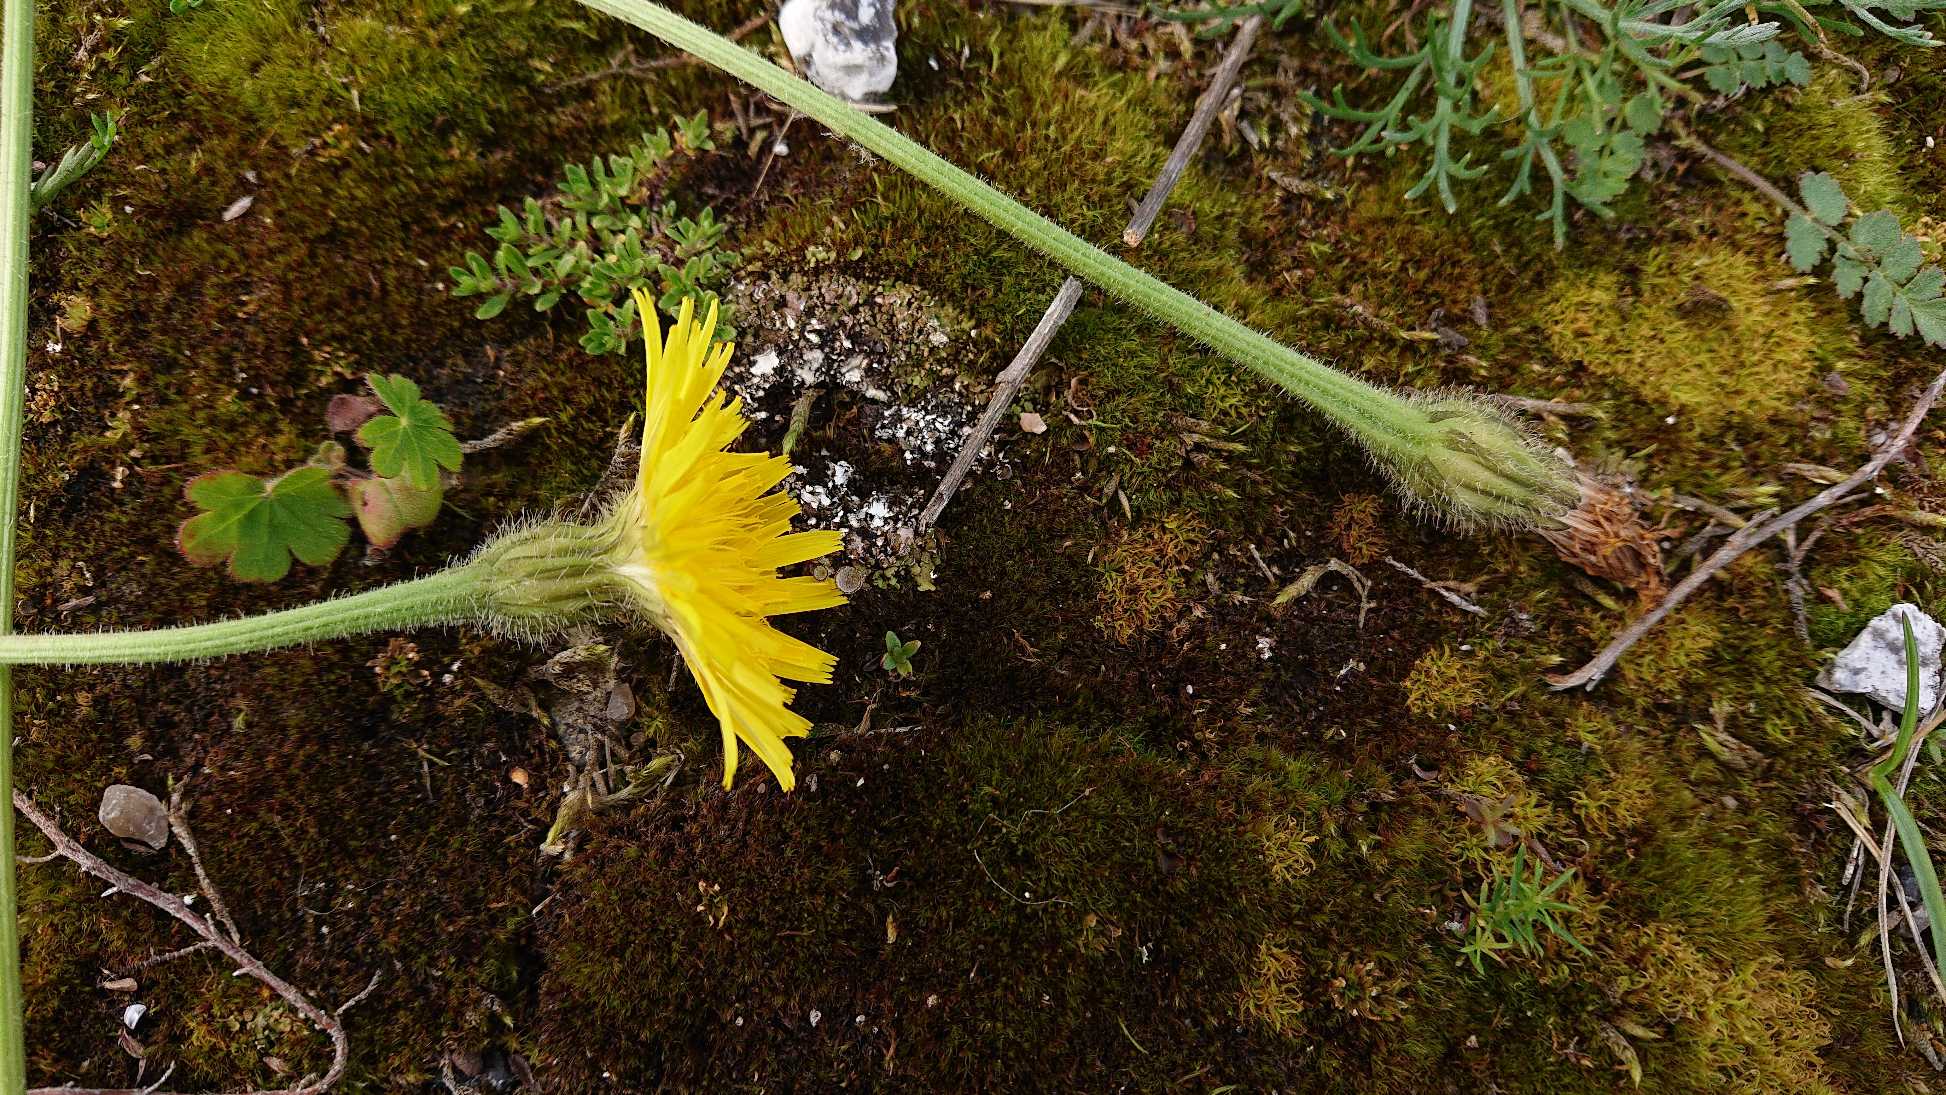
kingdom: Plantae
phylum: Tracheophyta
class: Magnoliopsida
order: Asterales
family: Asteraceae
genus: Leontodon
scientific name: Leontodon hispidus
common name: Stivhåret borst
